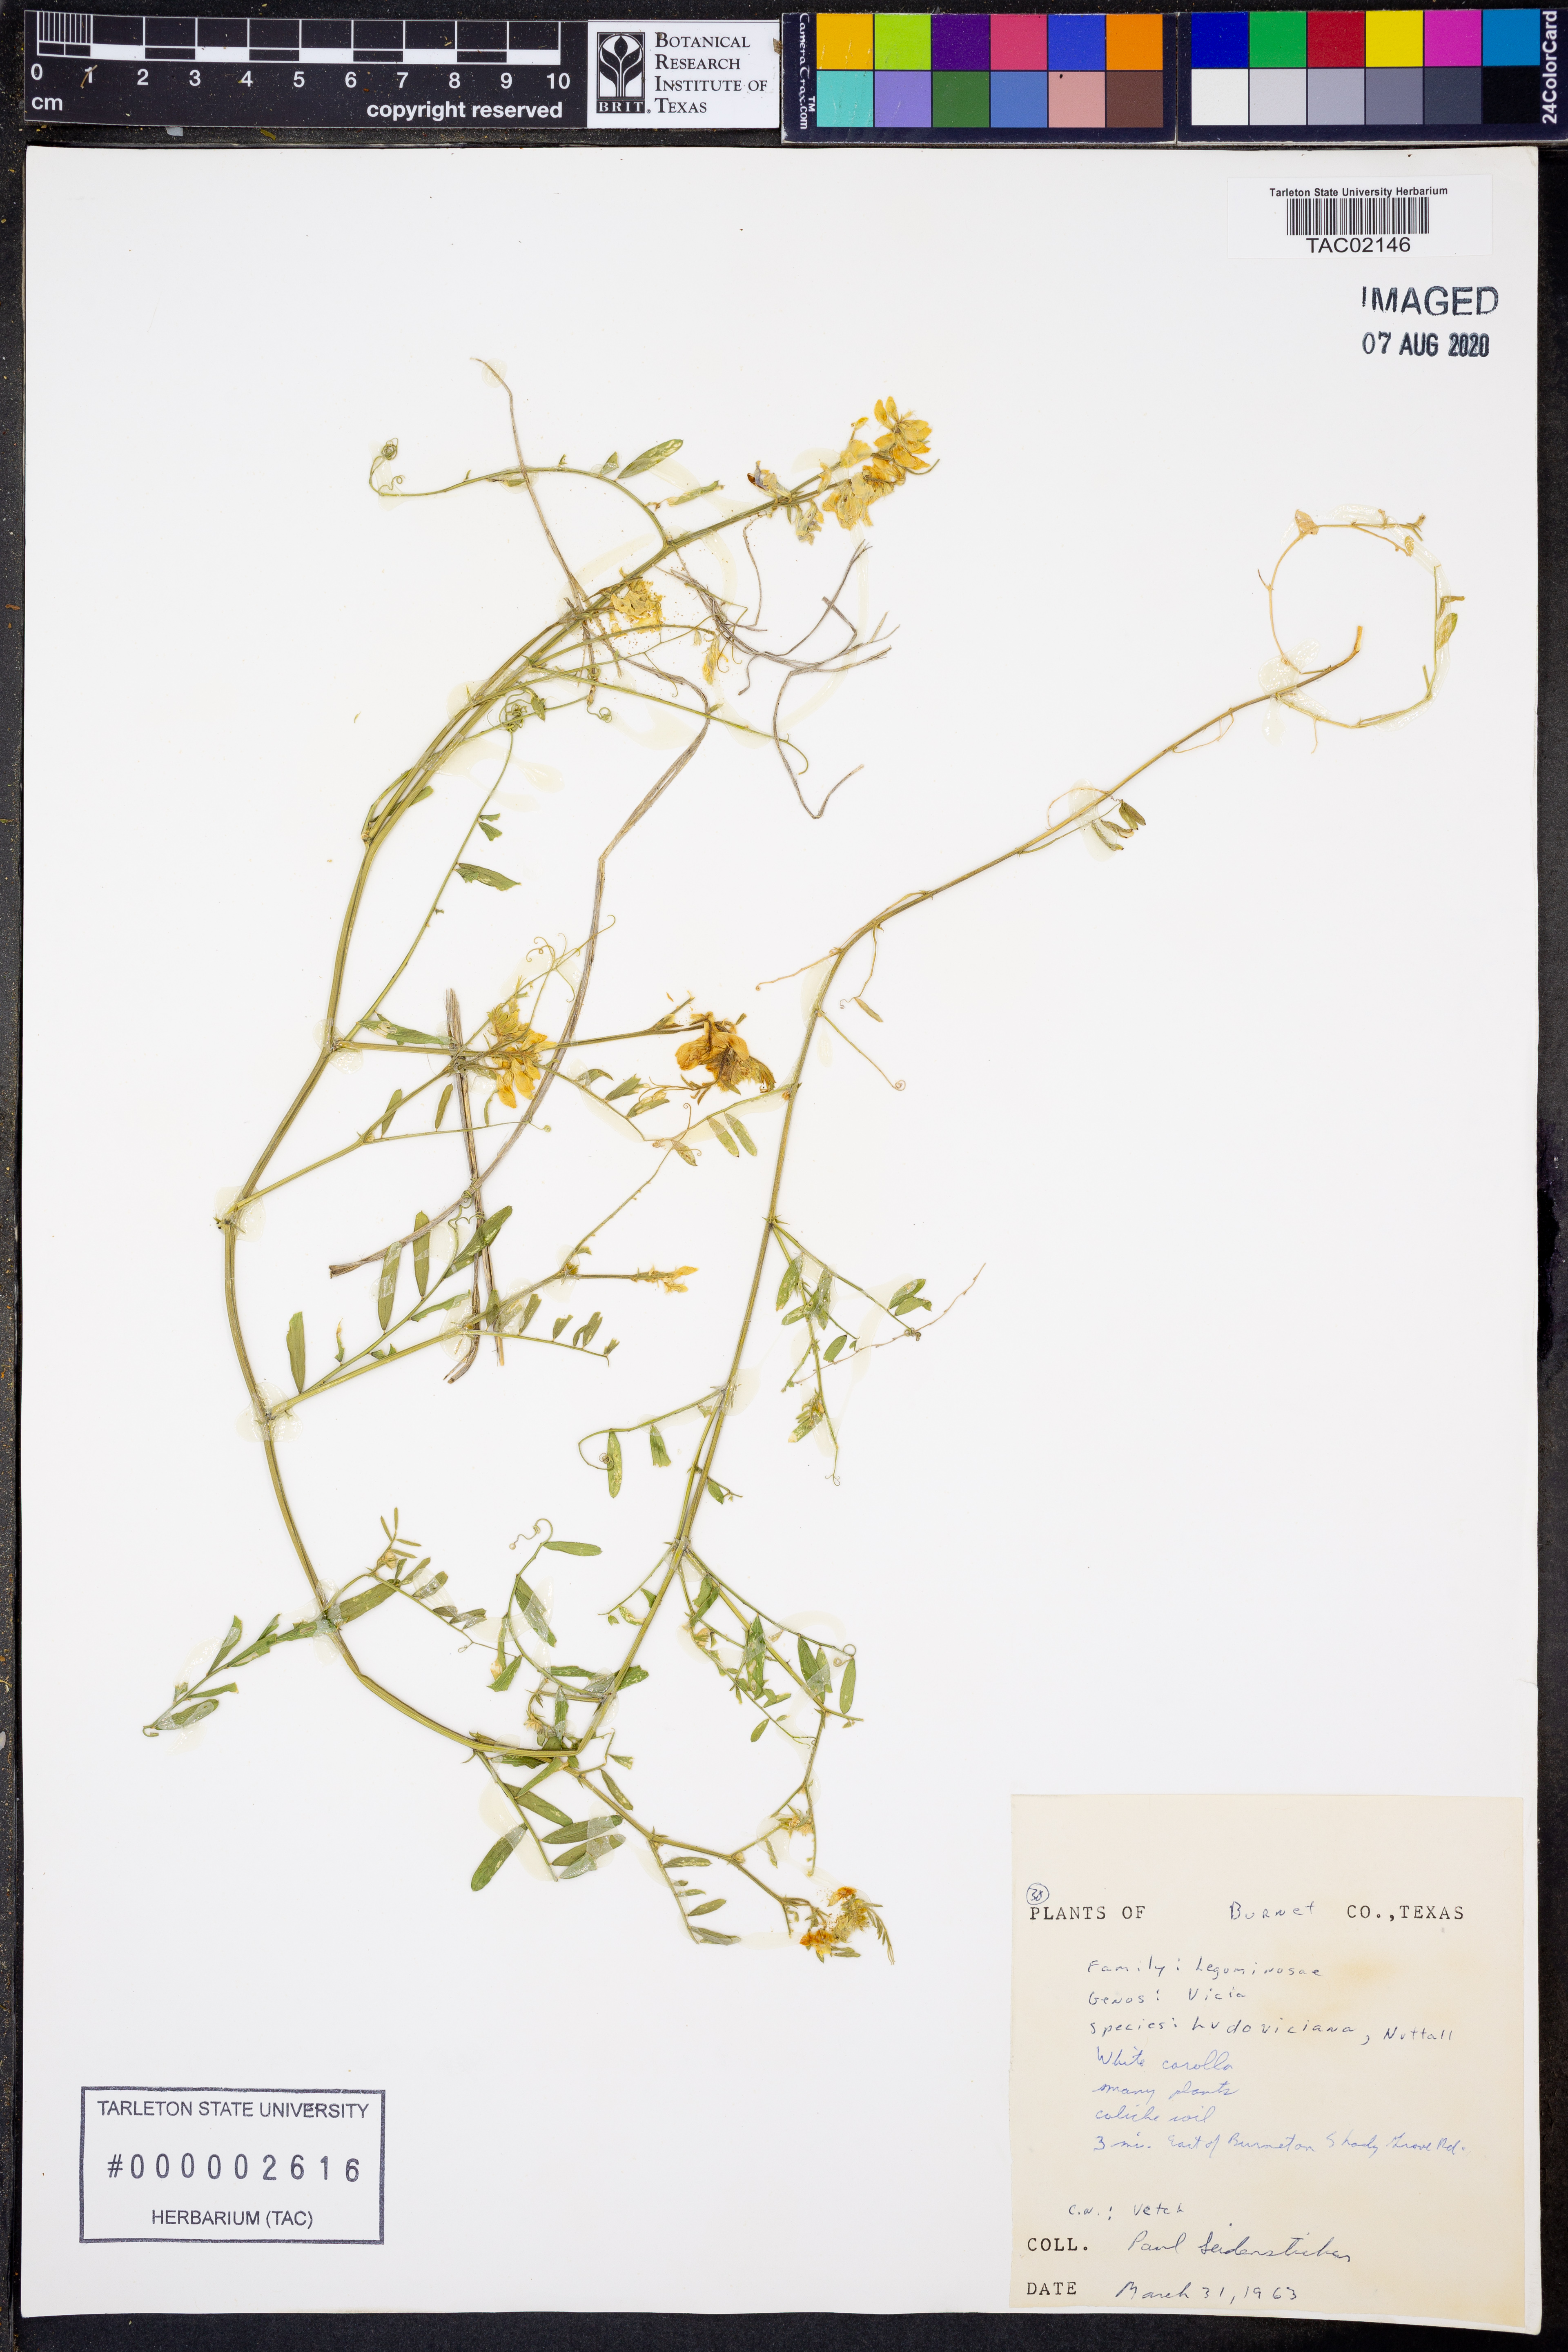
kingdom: Plantae
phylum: Tracheophyta
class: Magnoliopsida
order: Fabales
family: Fabaceae
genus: Vicia
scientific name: Vicia ludoviciana
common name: Louisiana vetch
